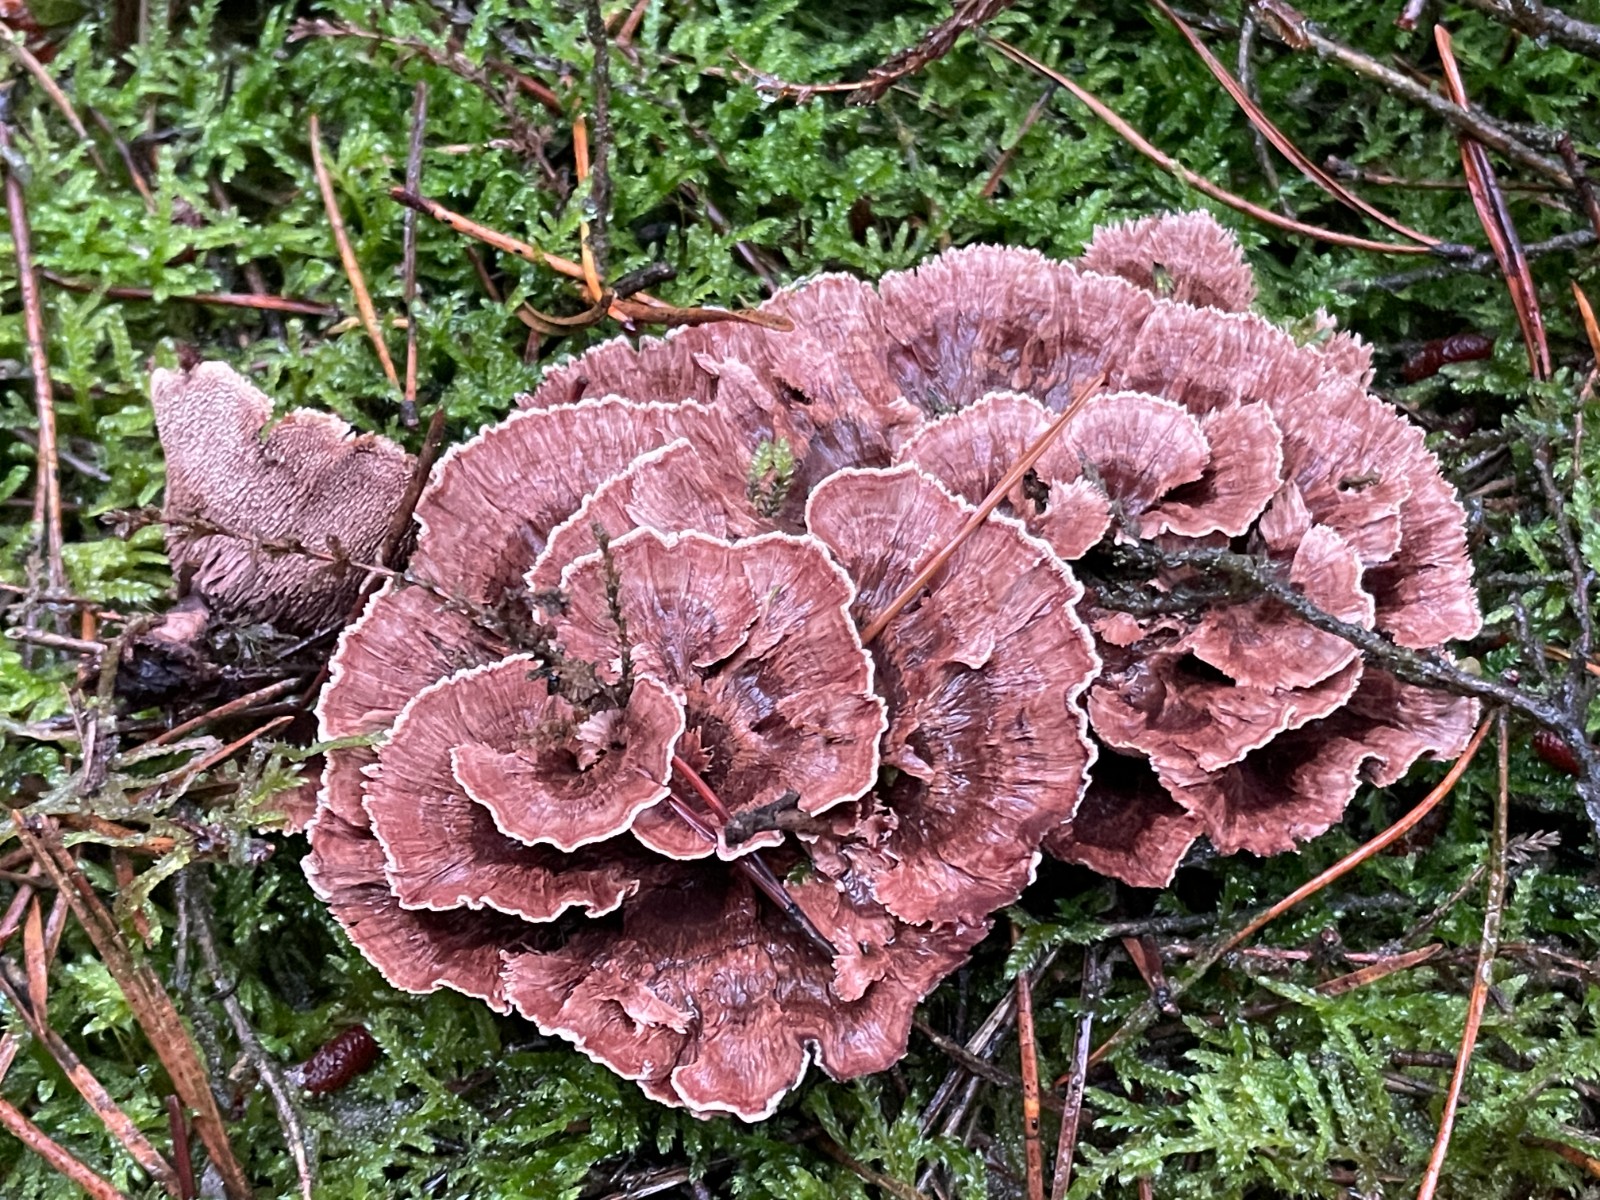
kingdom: Fungi
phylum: Basidiomycota
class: Agaricomycetes
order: Thelephorales
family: Bankeraceae
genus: Hydnellum
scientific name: Hydnellum concrescens
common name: Zoned tooth
